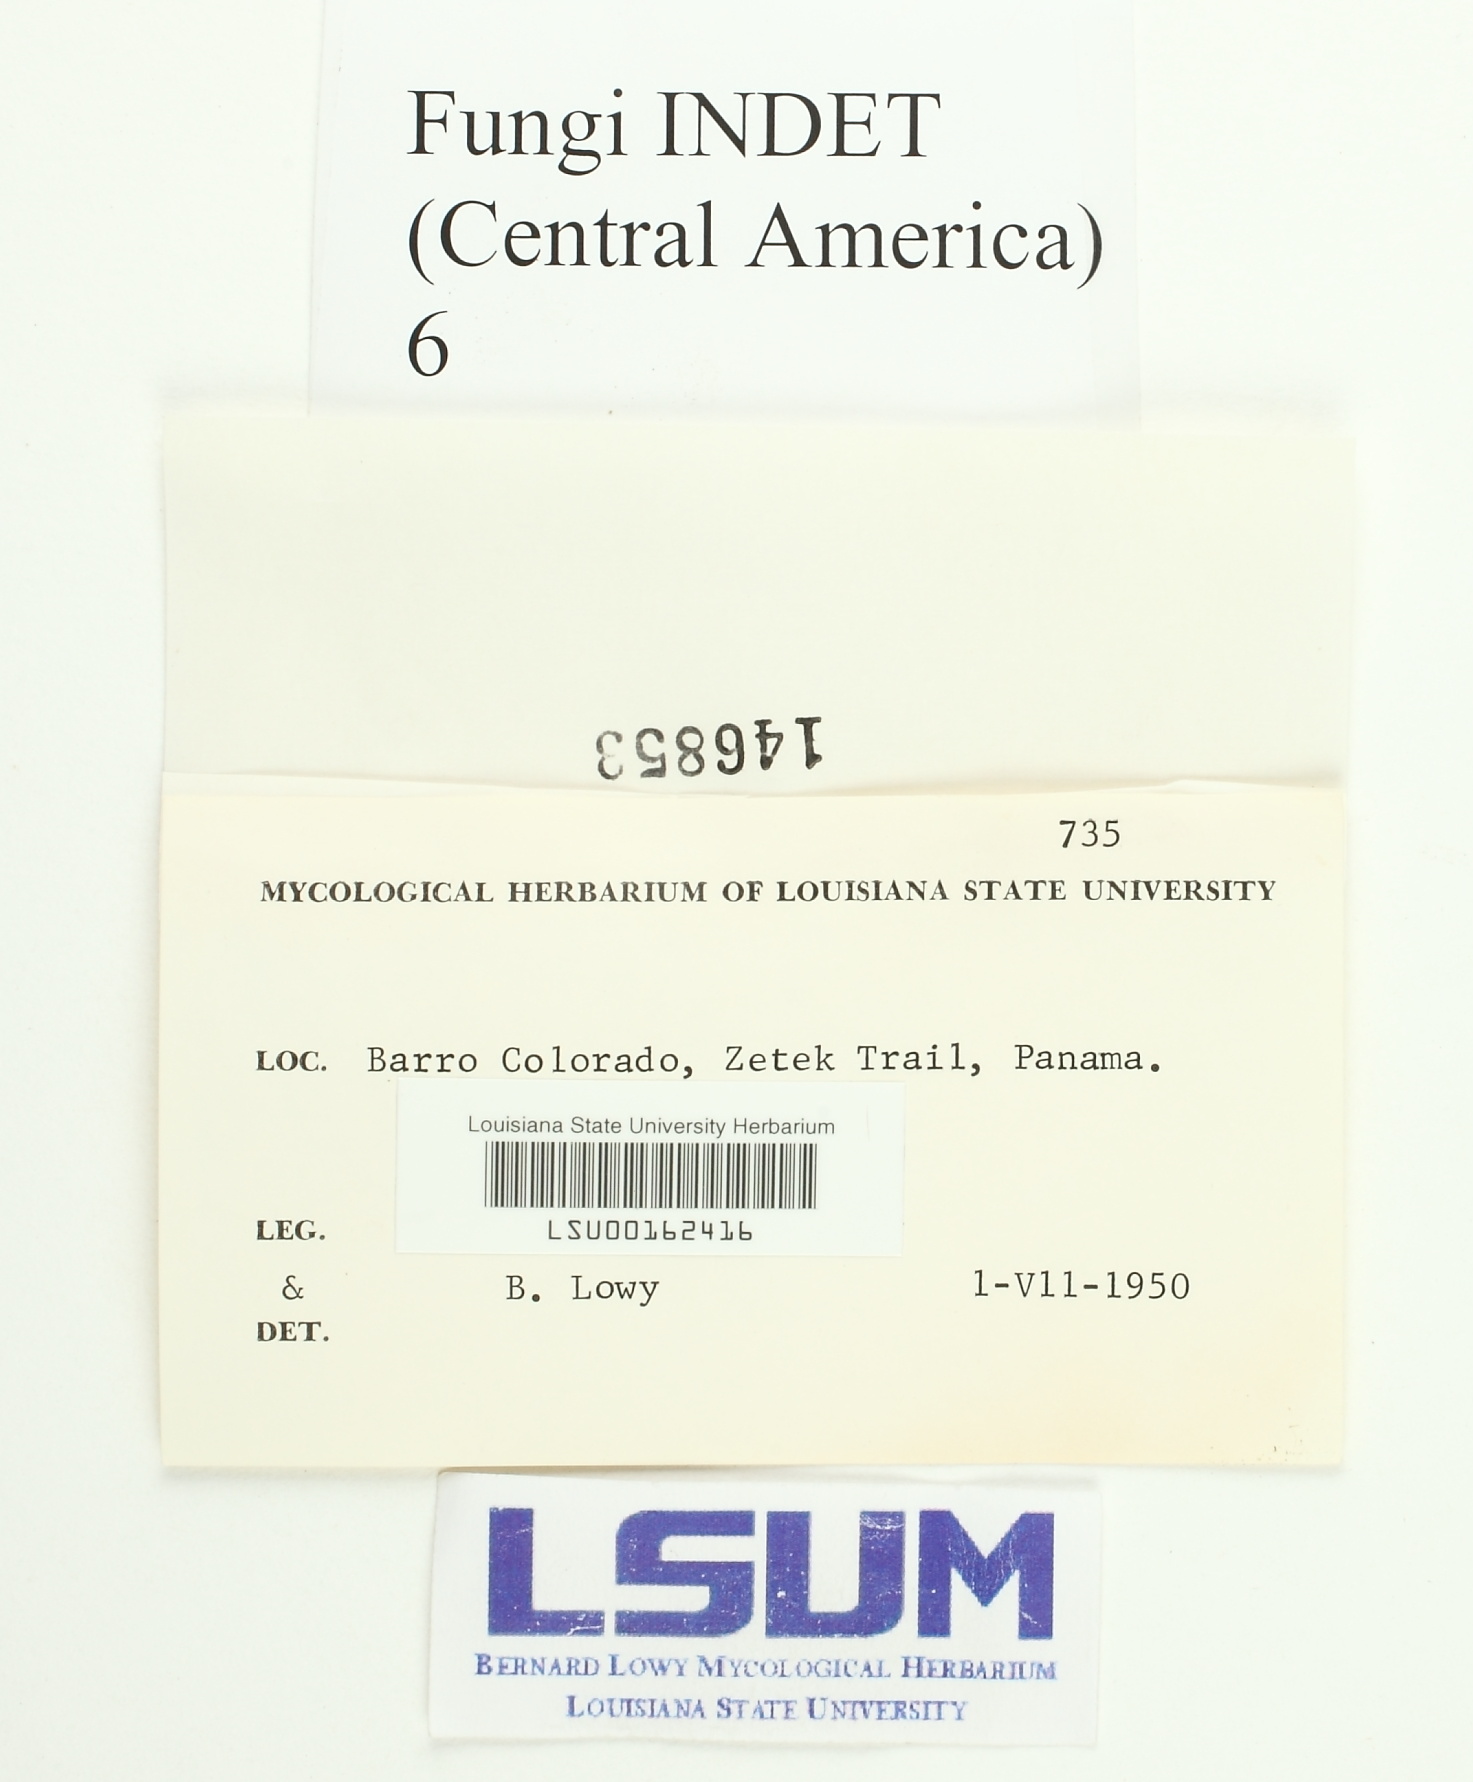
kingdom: Fungi
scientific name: Fungi
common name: Fungi
